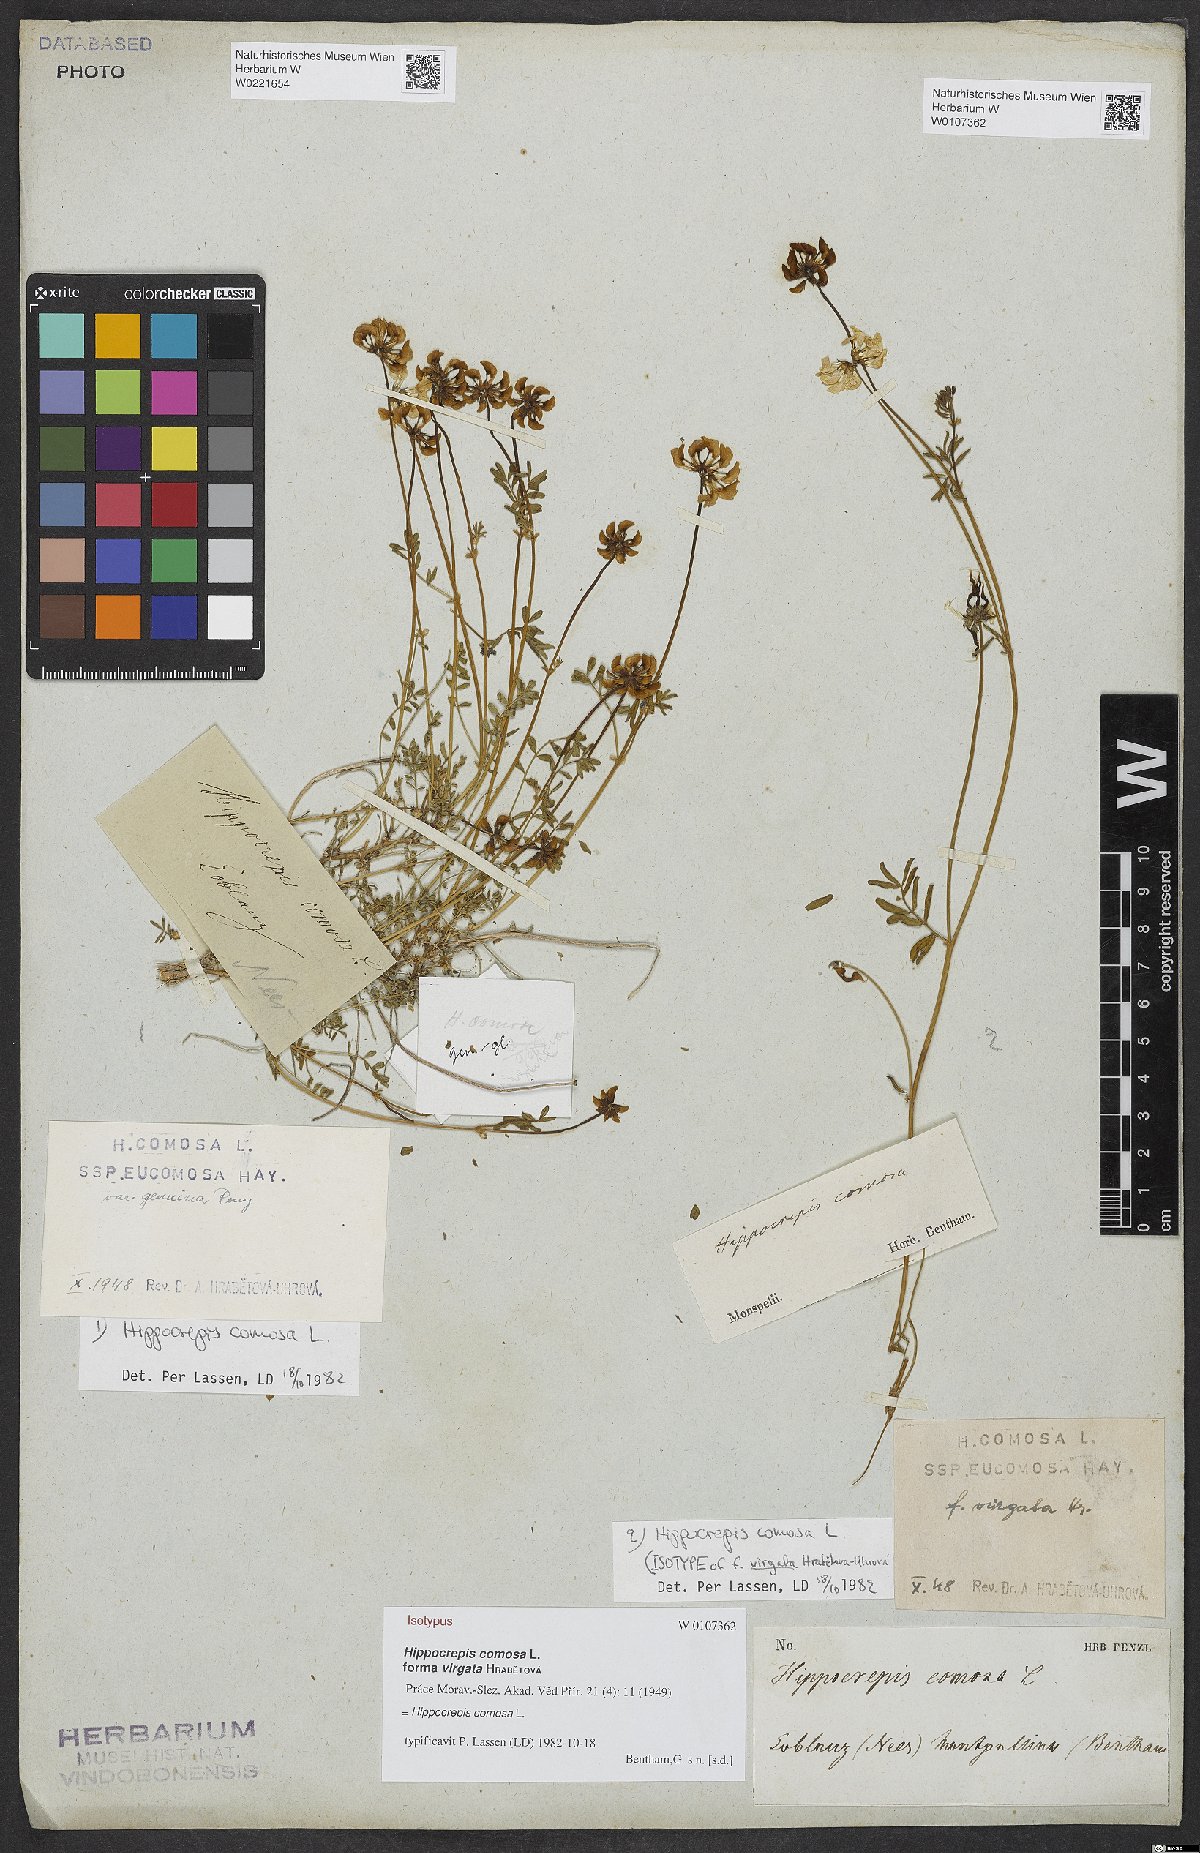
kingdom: Plantae
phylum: Tracheophyta
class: Magnoliopsida
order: Fabales
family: Fabaceae
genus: Hippocrepis
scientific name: Hippocrepis comosa
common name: Horseshoe vetch
